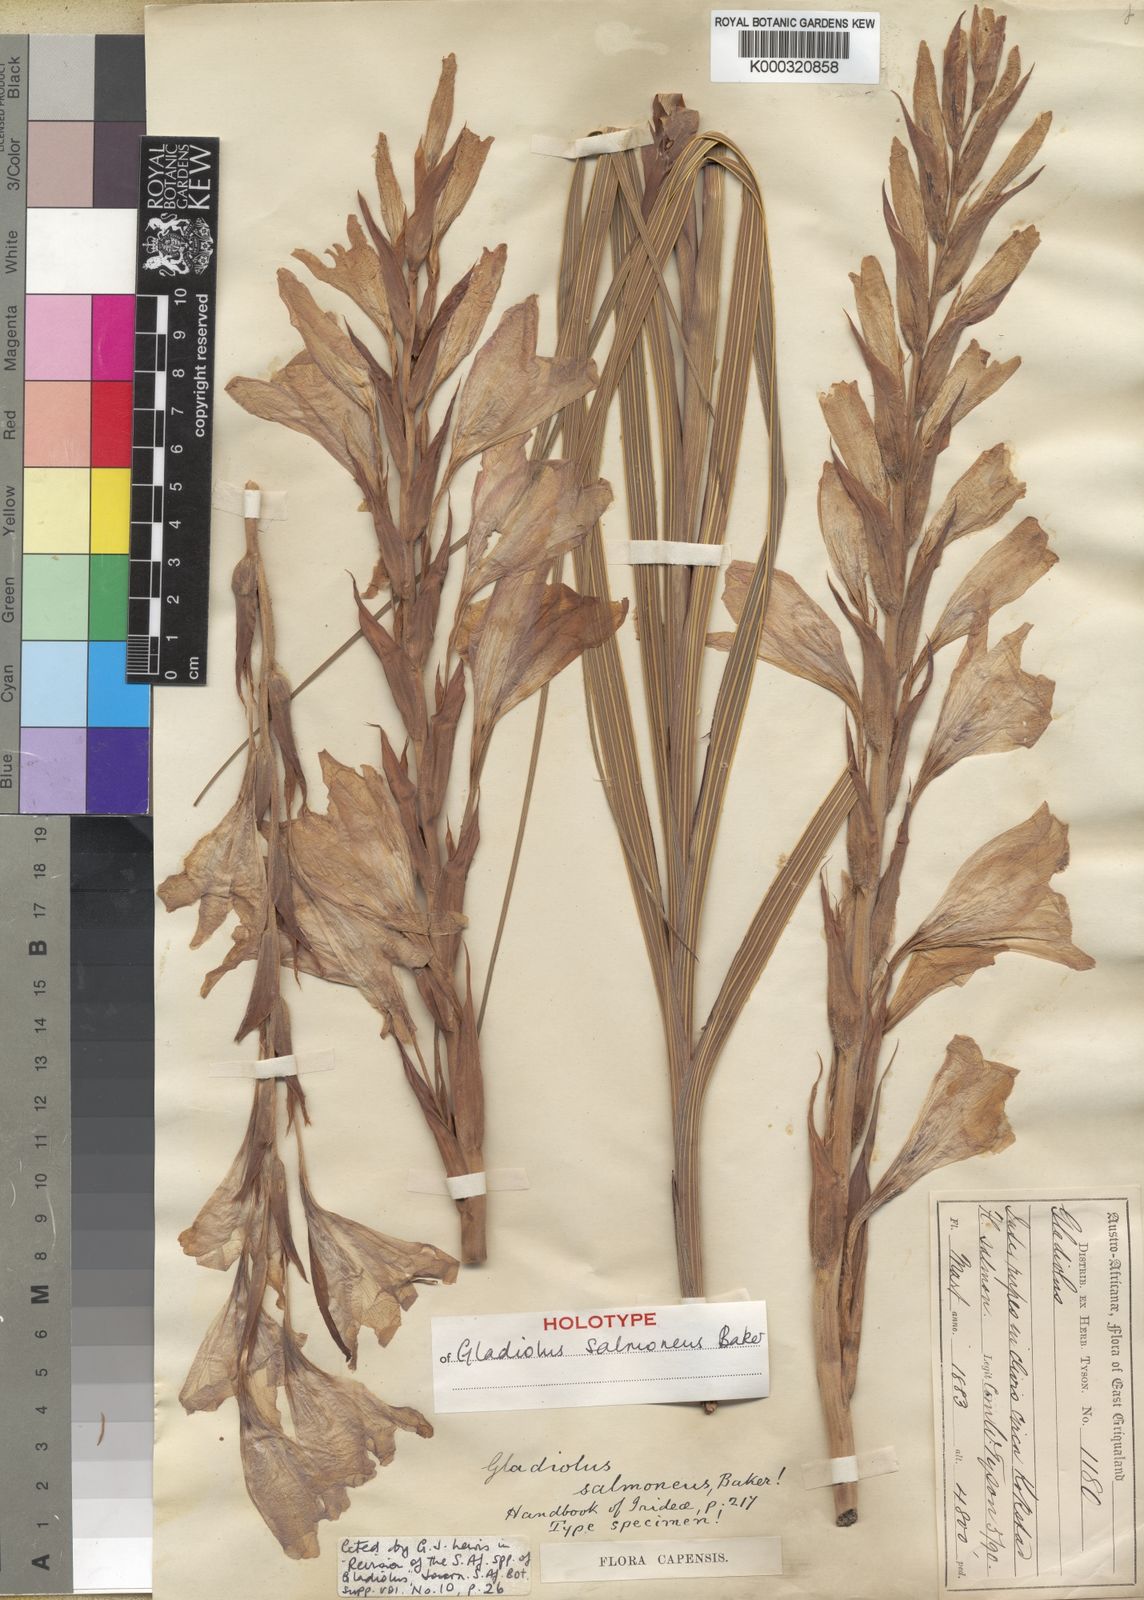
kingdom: Plantae
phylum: Tracheophyta
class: Liliopsida
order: Asparagales
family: Iridaceae
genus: Gladiolus
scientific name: Gladiolus oppositiflorus
